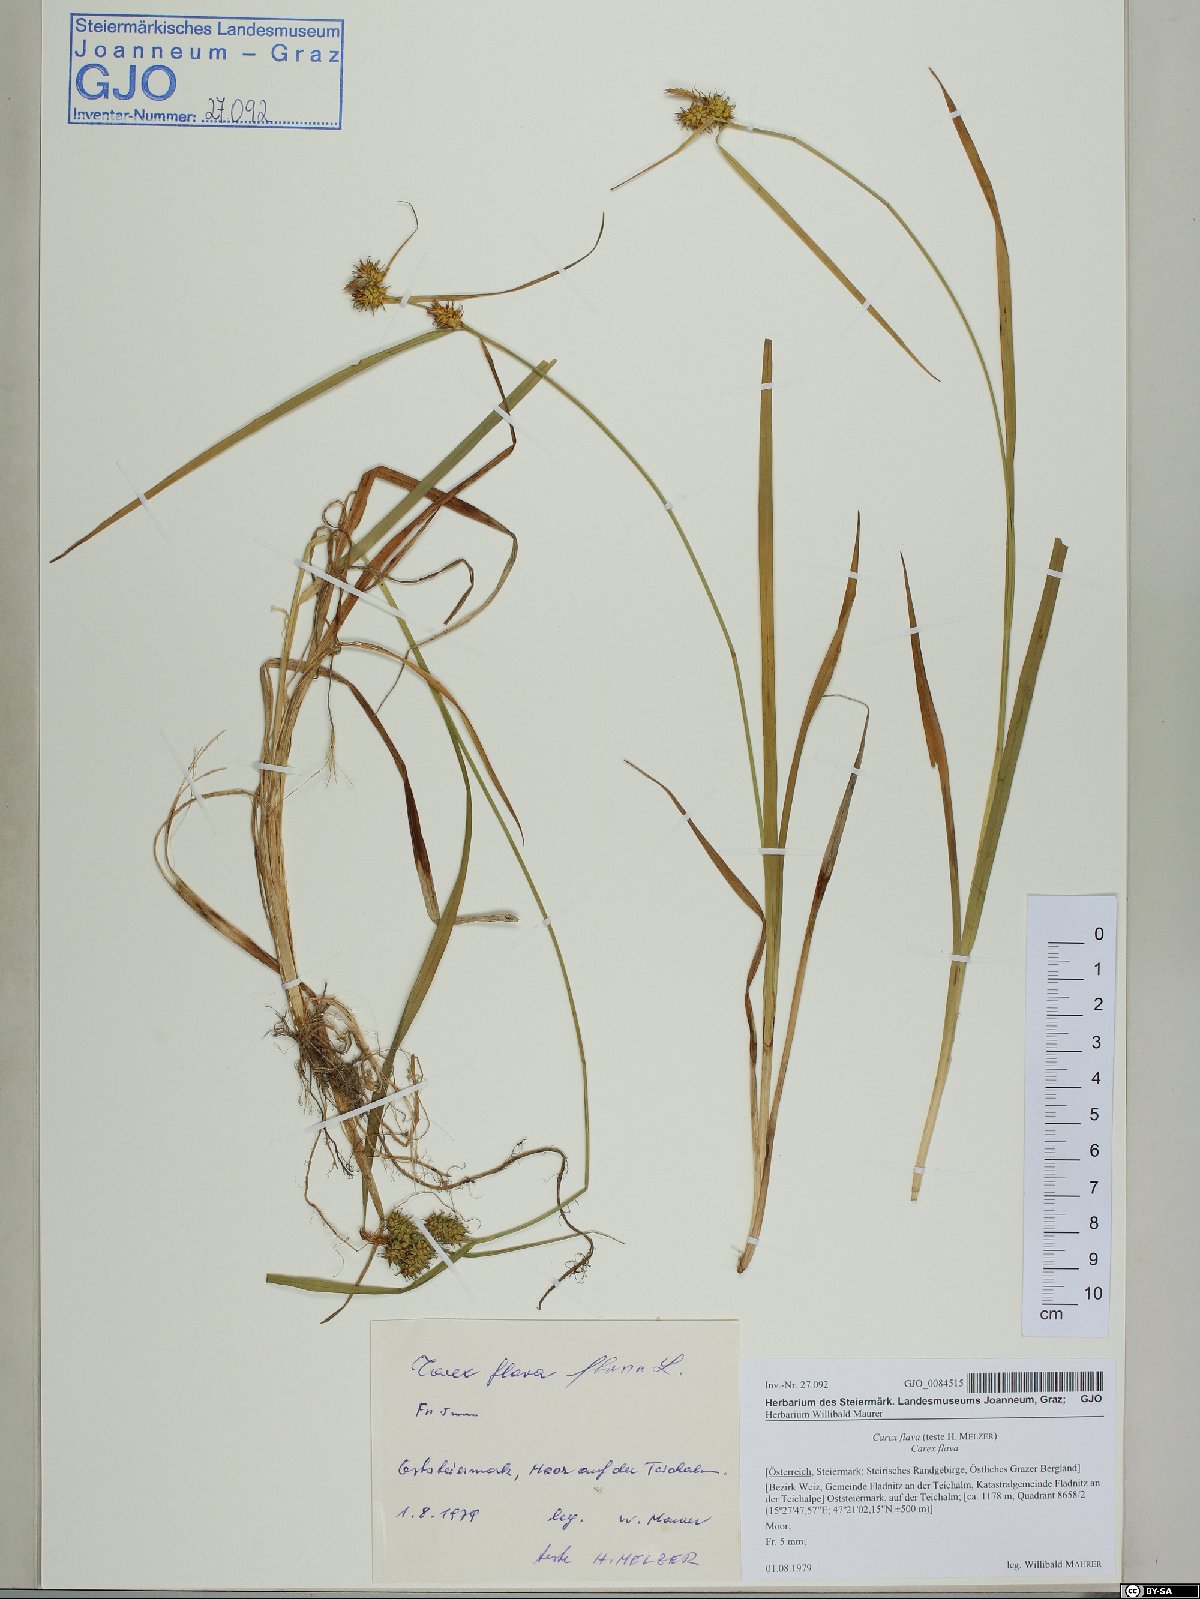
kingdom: Plantae
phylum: Tracheophyta
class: Liliopsida
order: Poales
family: Cyperaceae
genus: Carex
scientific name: Carex flava
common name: Large yellow-sedge
